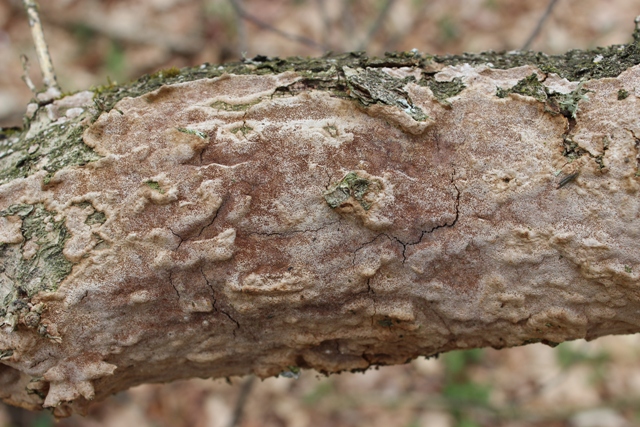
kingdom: Fungi
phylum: Basidiomycota
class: Agaricomycetes
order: Hymenochaetales
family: Hymenochaetaceae
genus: Fuscoporia
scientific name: Fuscoporia ferrea
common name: skorpe-ildporesvamp
